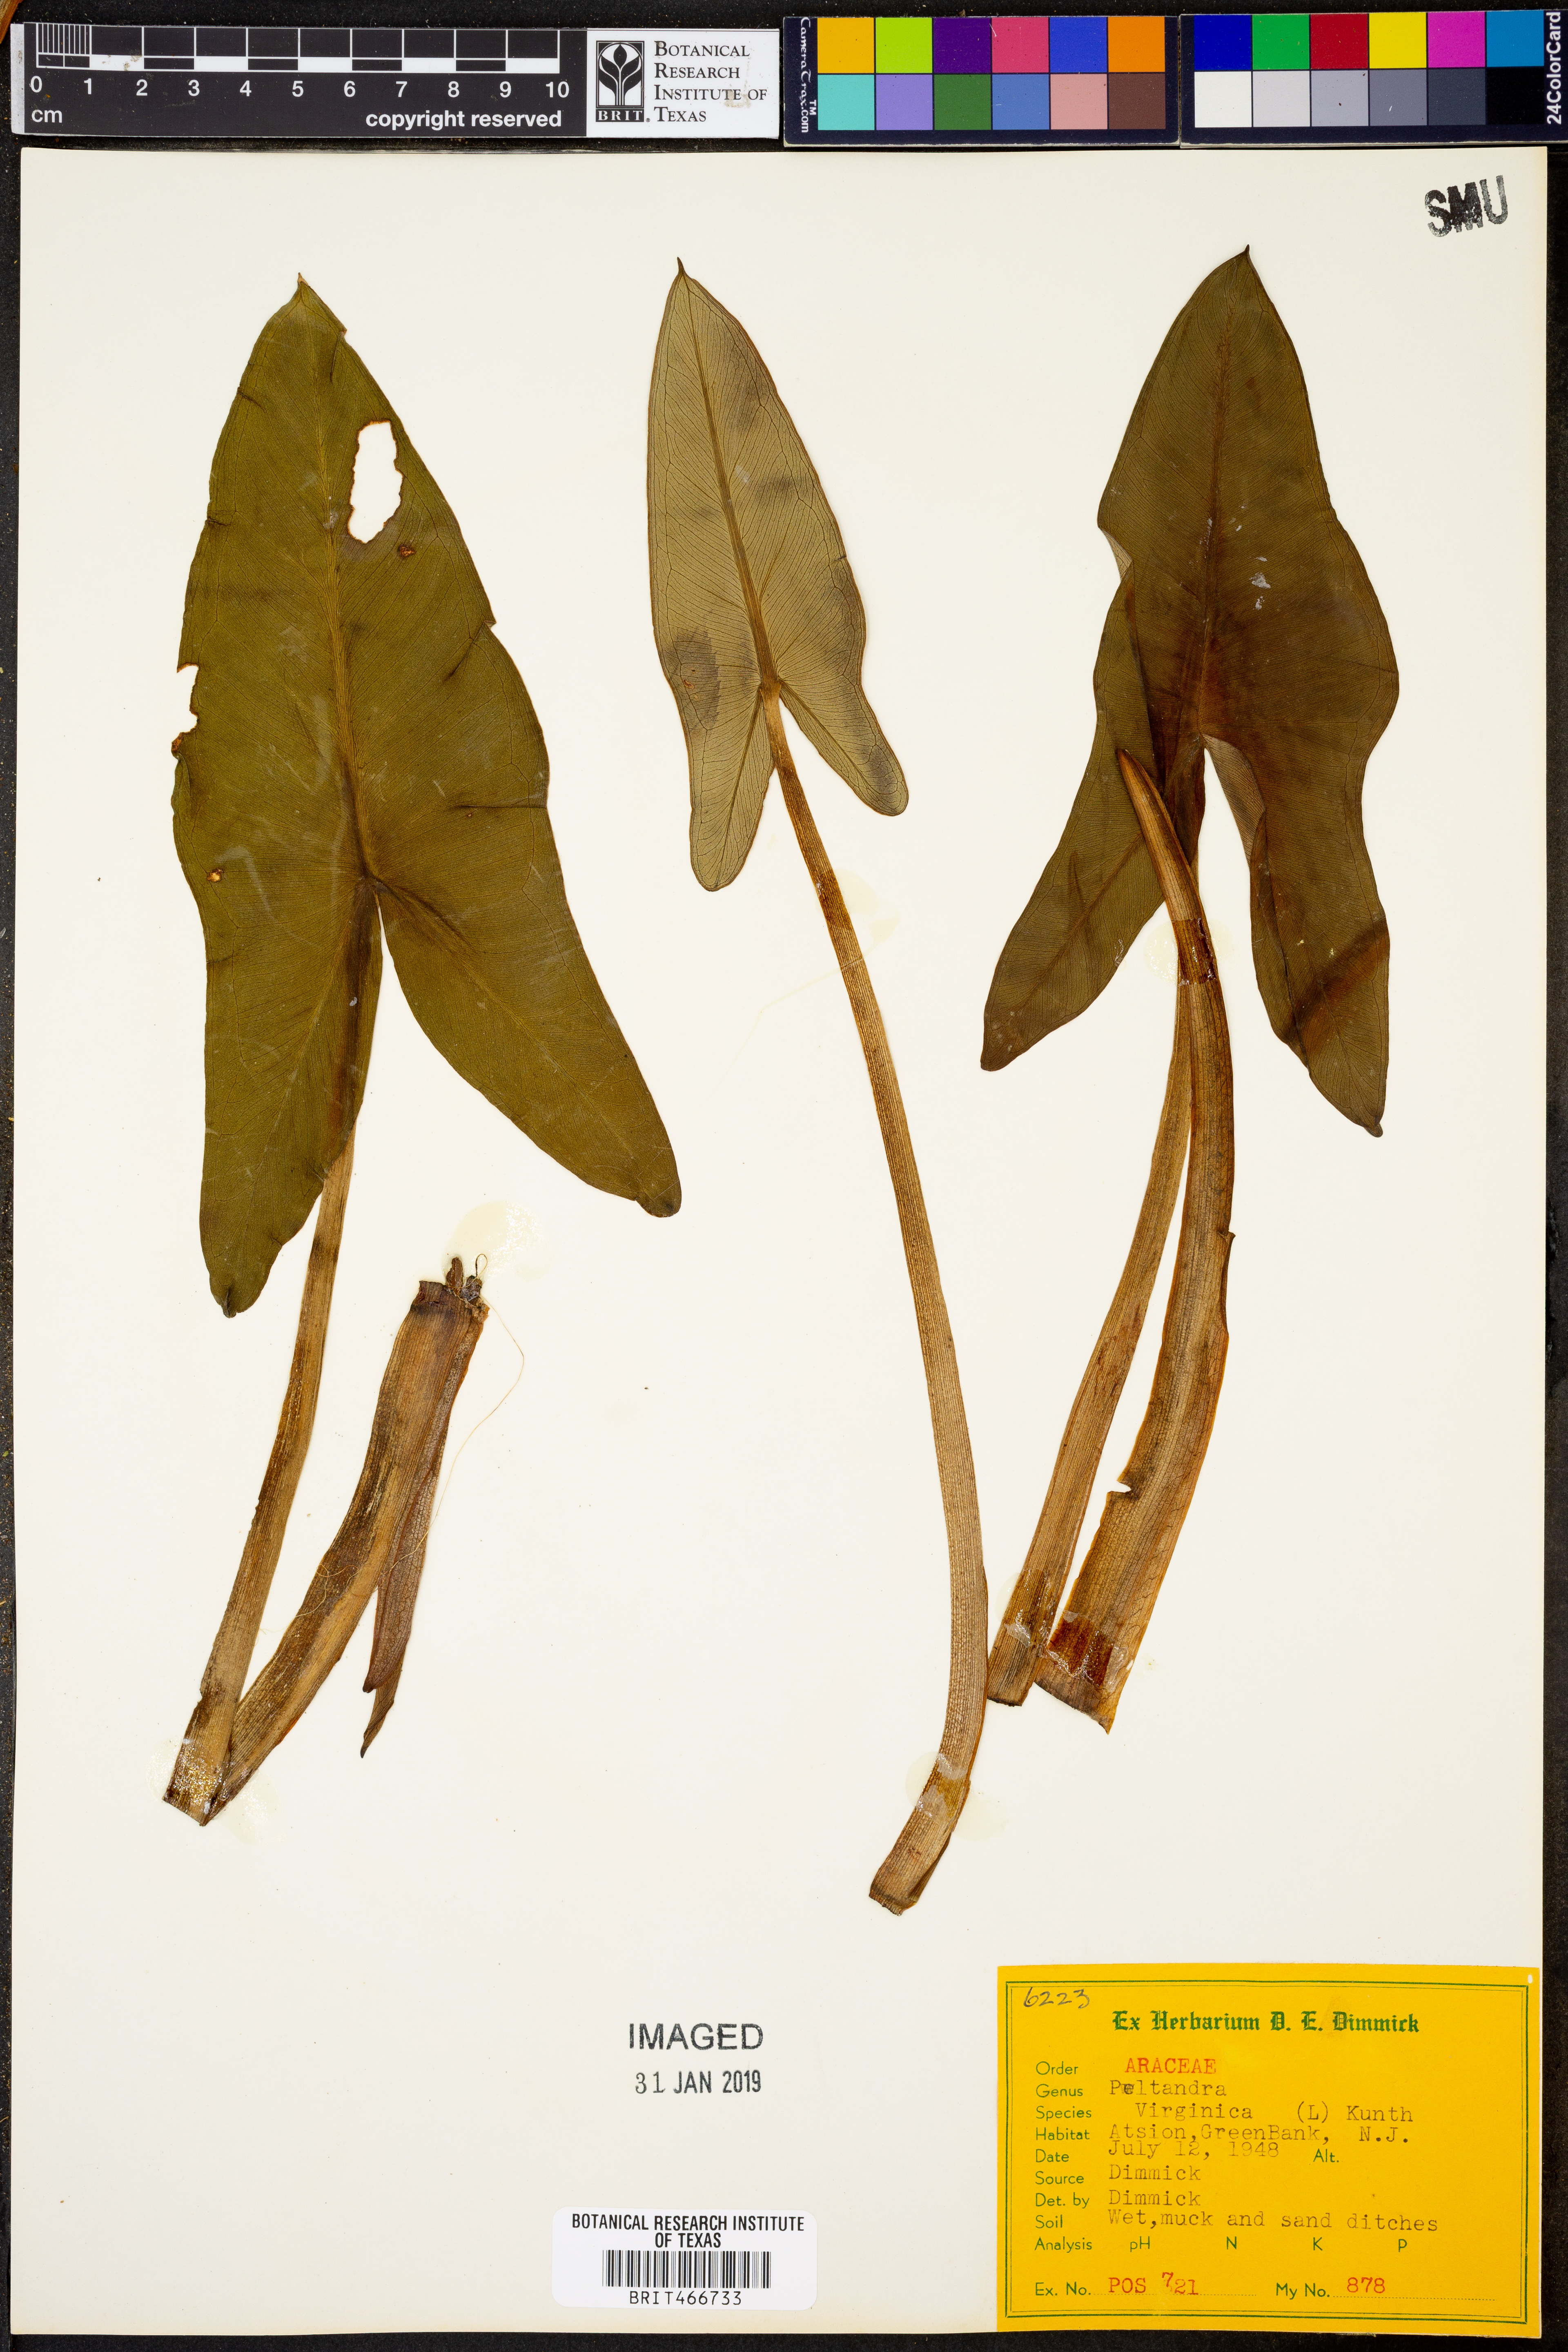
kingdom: Plantae
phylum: Tracheophyta
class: Liliopsida
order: Alismatales
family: Araceae
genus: Peltandra
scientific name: Peltandra virginica
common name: Arrow arum
